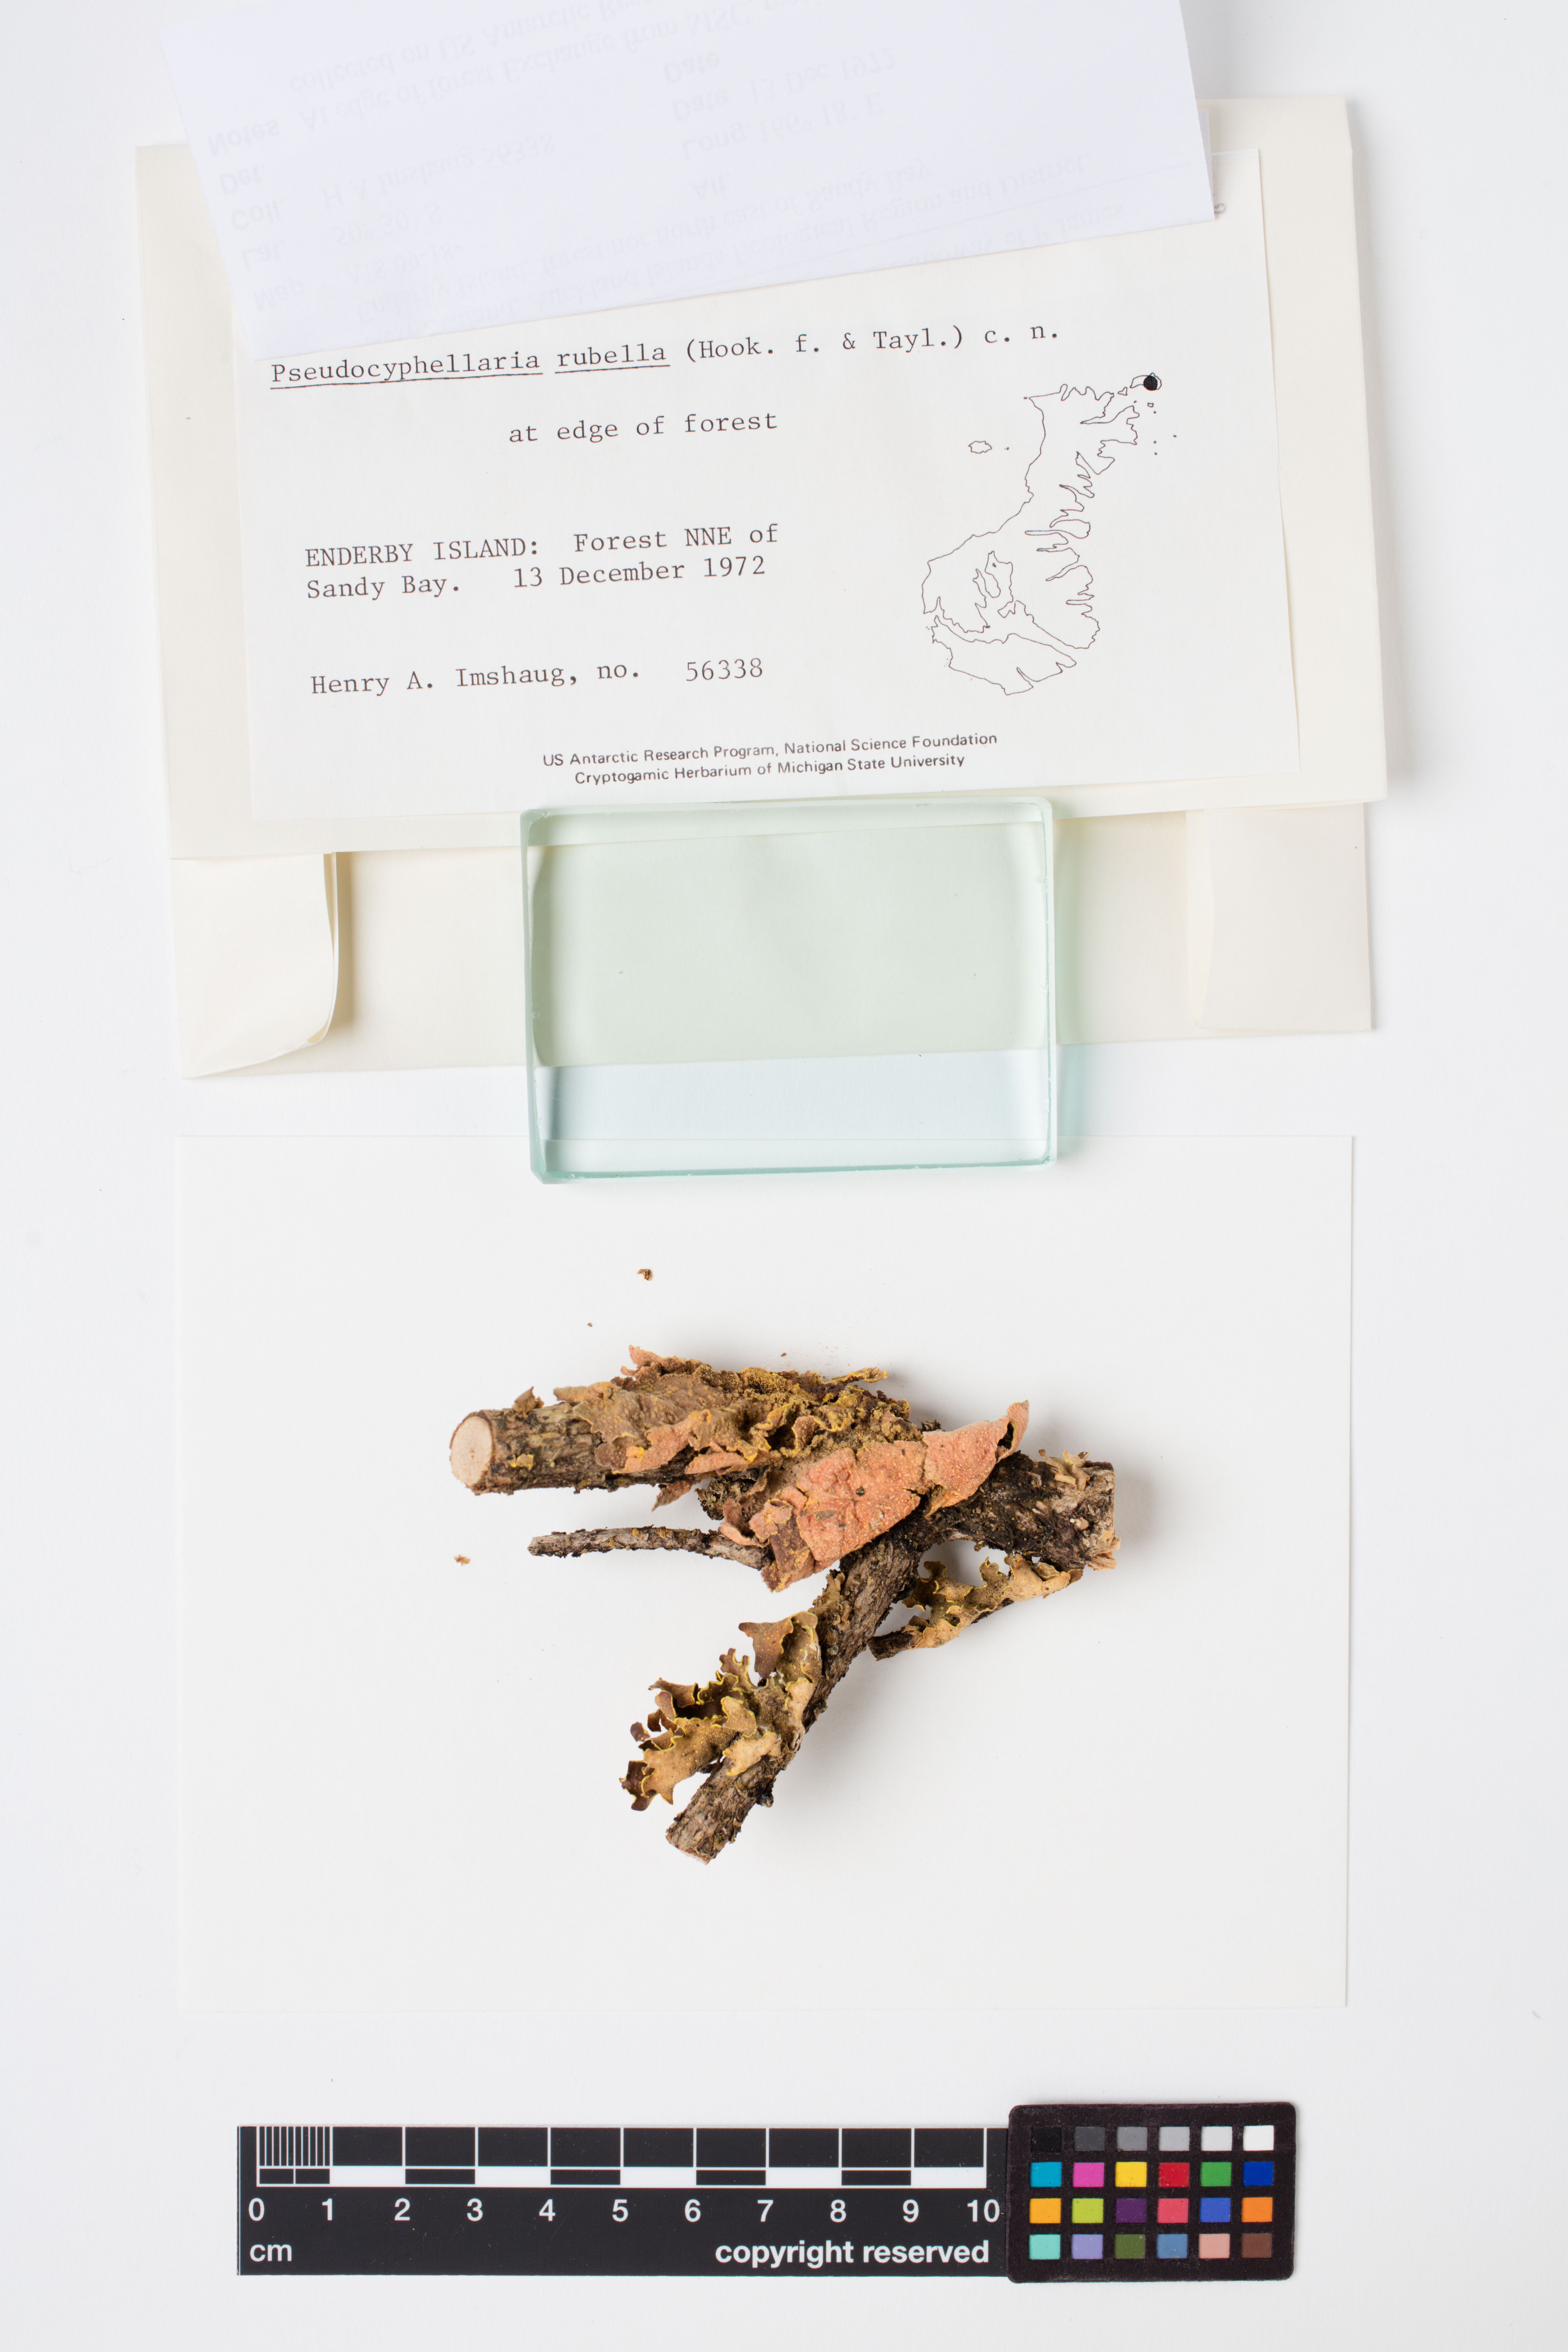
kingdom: Fungi
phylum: Ascomycota
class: Lecanoromycetes
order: Peltigerales
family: Lobariaceae
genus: Pseudocyphellaria
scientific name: Pseudocyphellaria rubella
